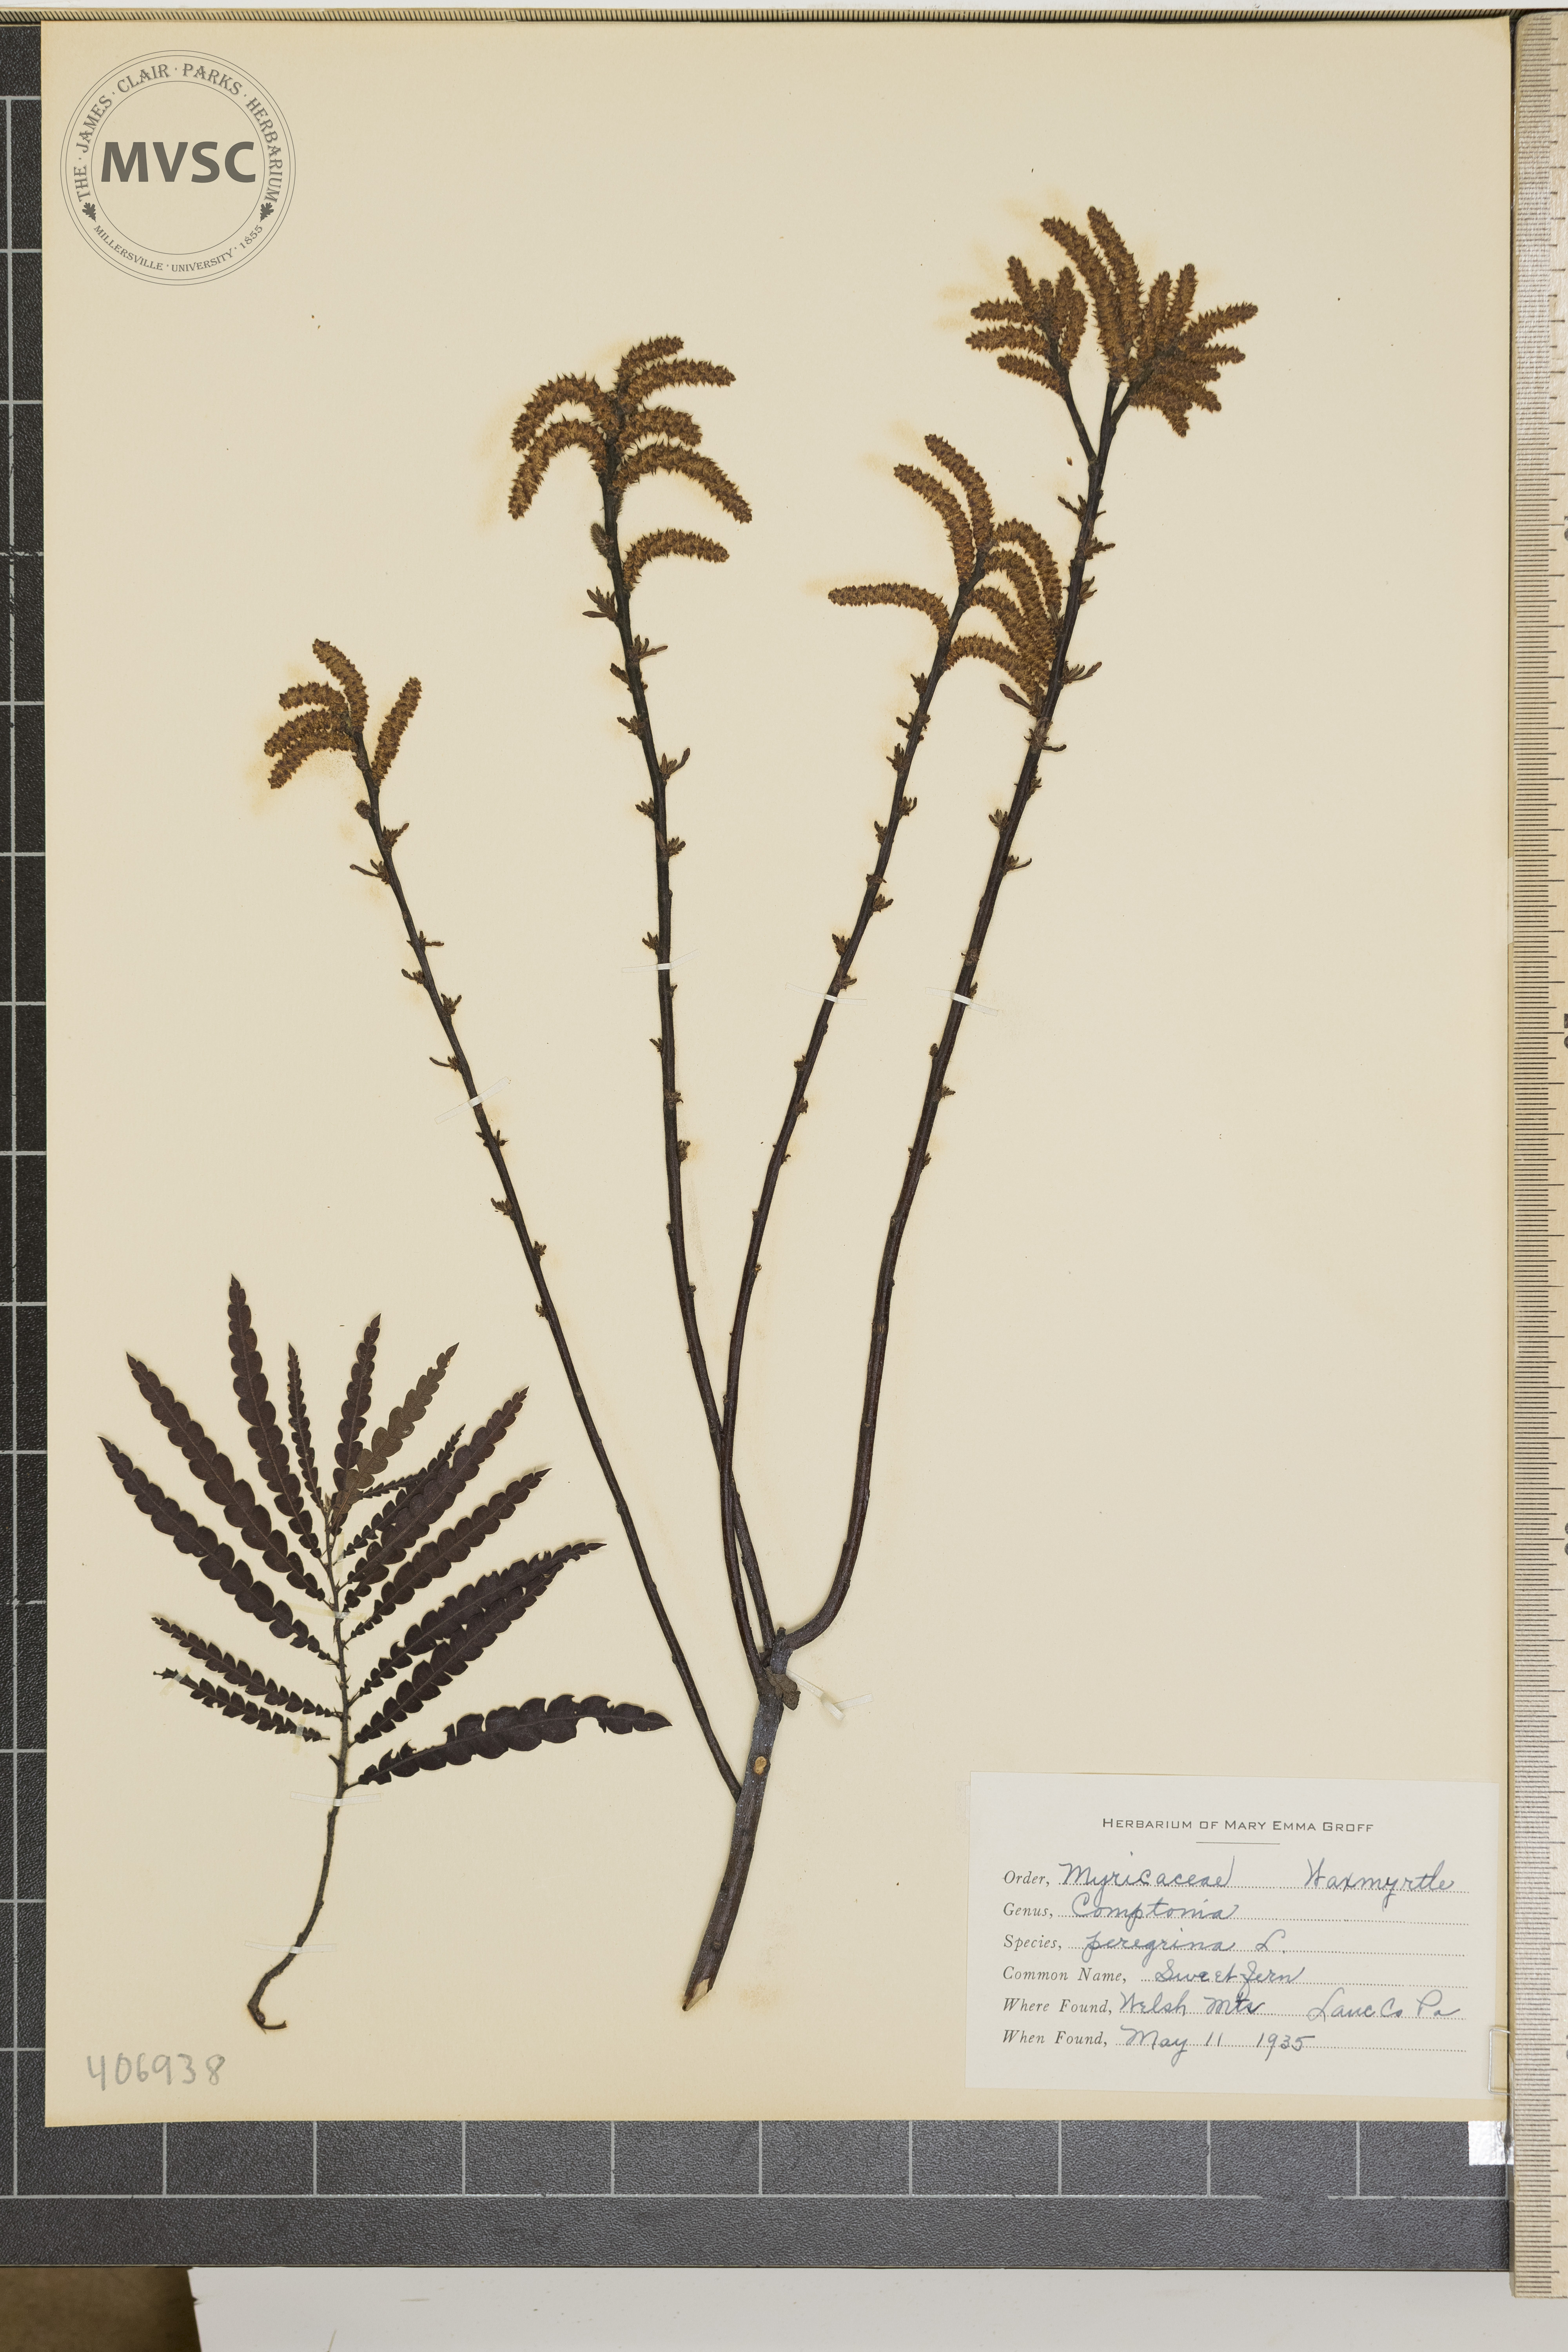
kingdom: Plantae
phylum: Tracheophyta
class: Magnoliopsida
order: Fagales
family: Myricaceae
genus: Comptonia
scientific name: Comptonia peregrina
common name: Sweet Fern
